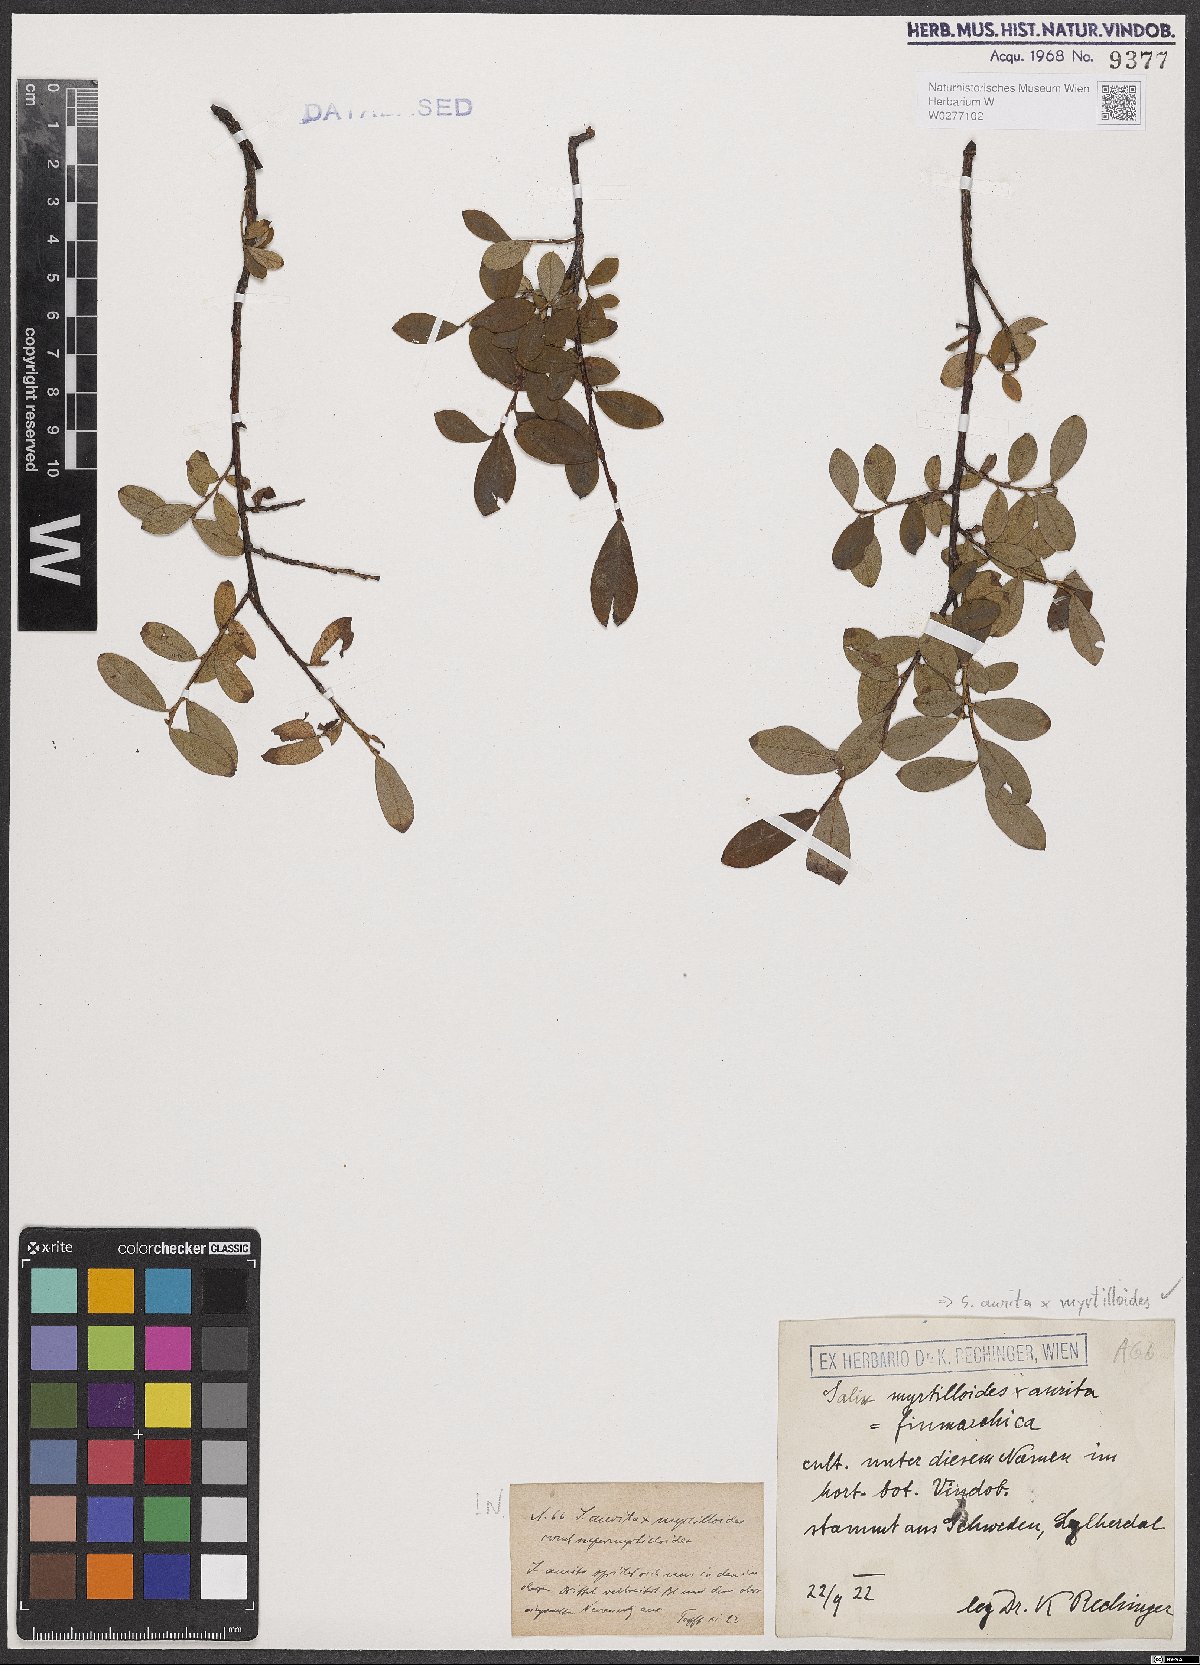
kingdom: Plantae
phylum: Tracheophyta
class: Magnoliopsida
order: Malpighiales
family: Salicaceae
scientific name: Salicaceae
